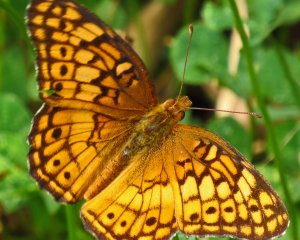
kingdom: Animalia
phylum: Arthropoda
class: Insecta
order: Lepidoptera
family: Nymphalidae
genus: Euptoieta
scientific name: Euptoieta claudia
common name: Variegated Fritillary
